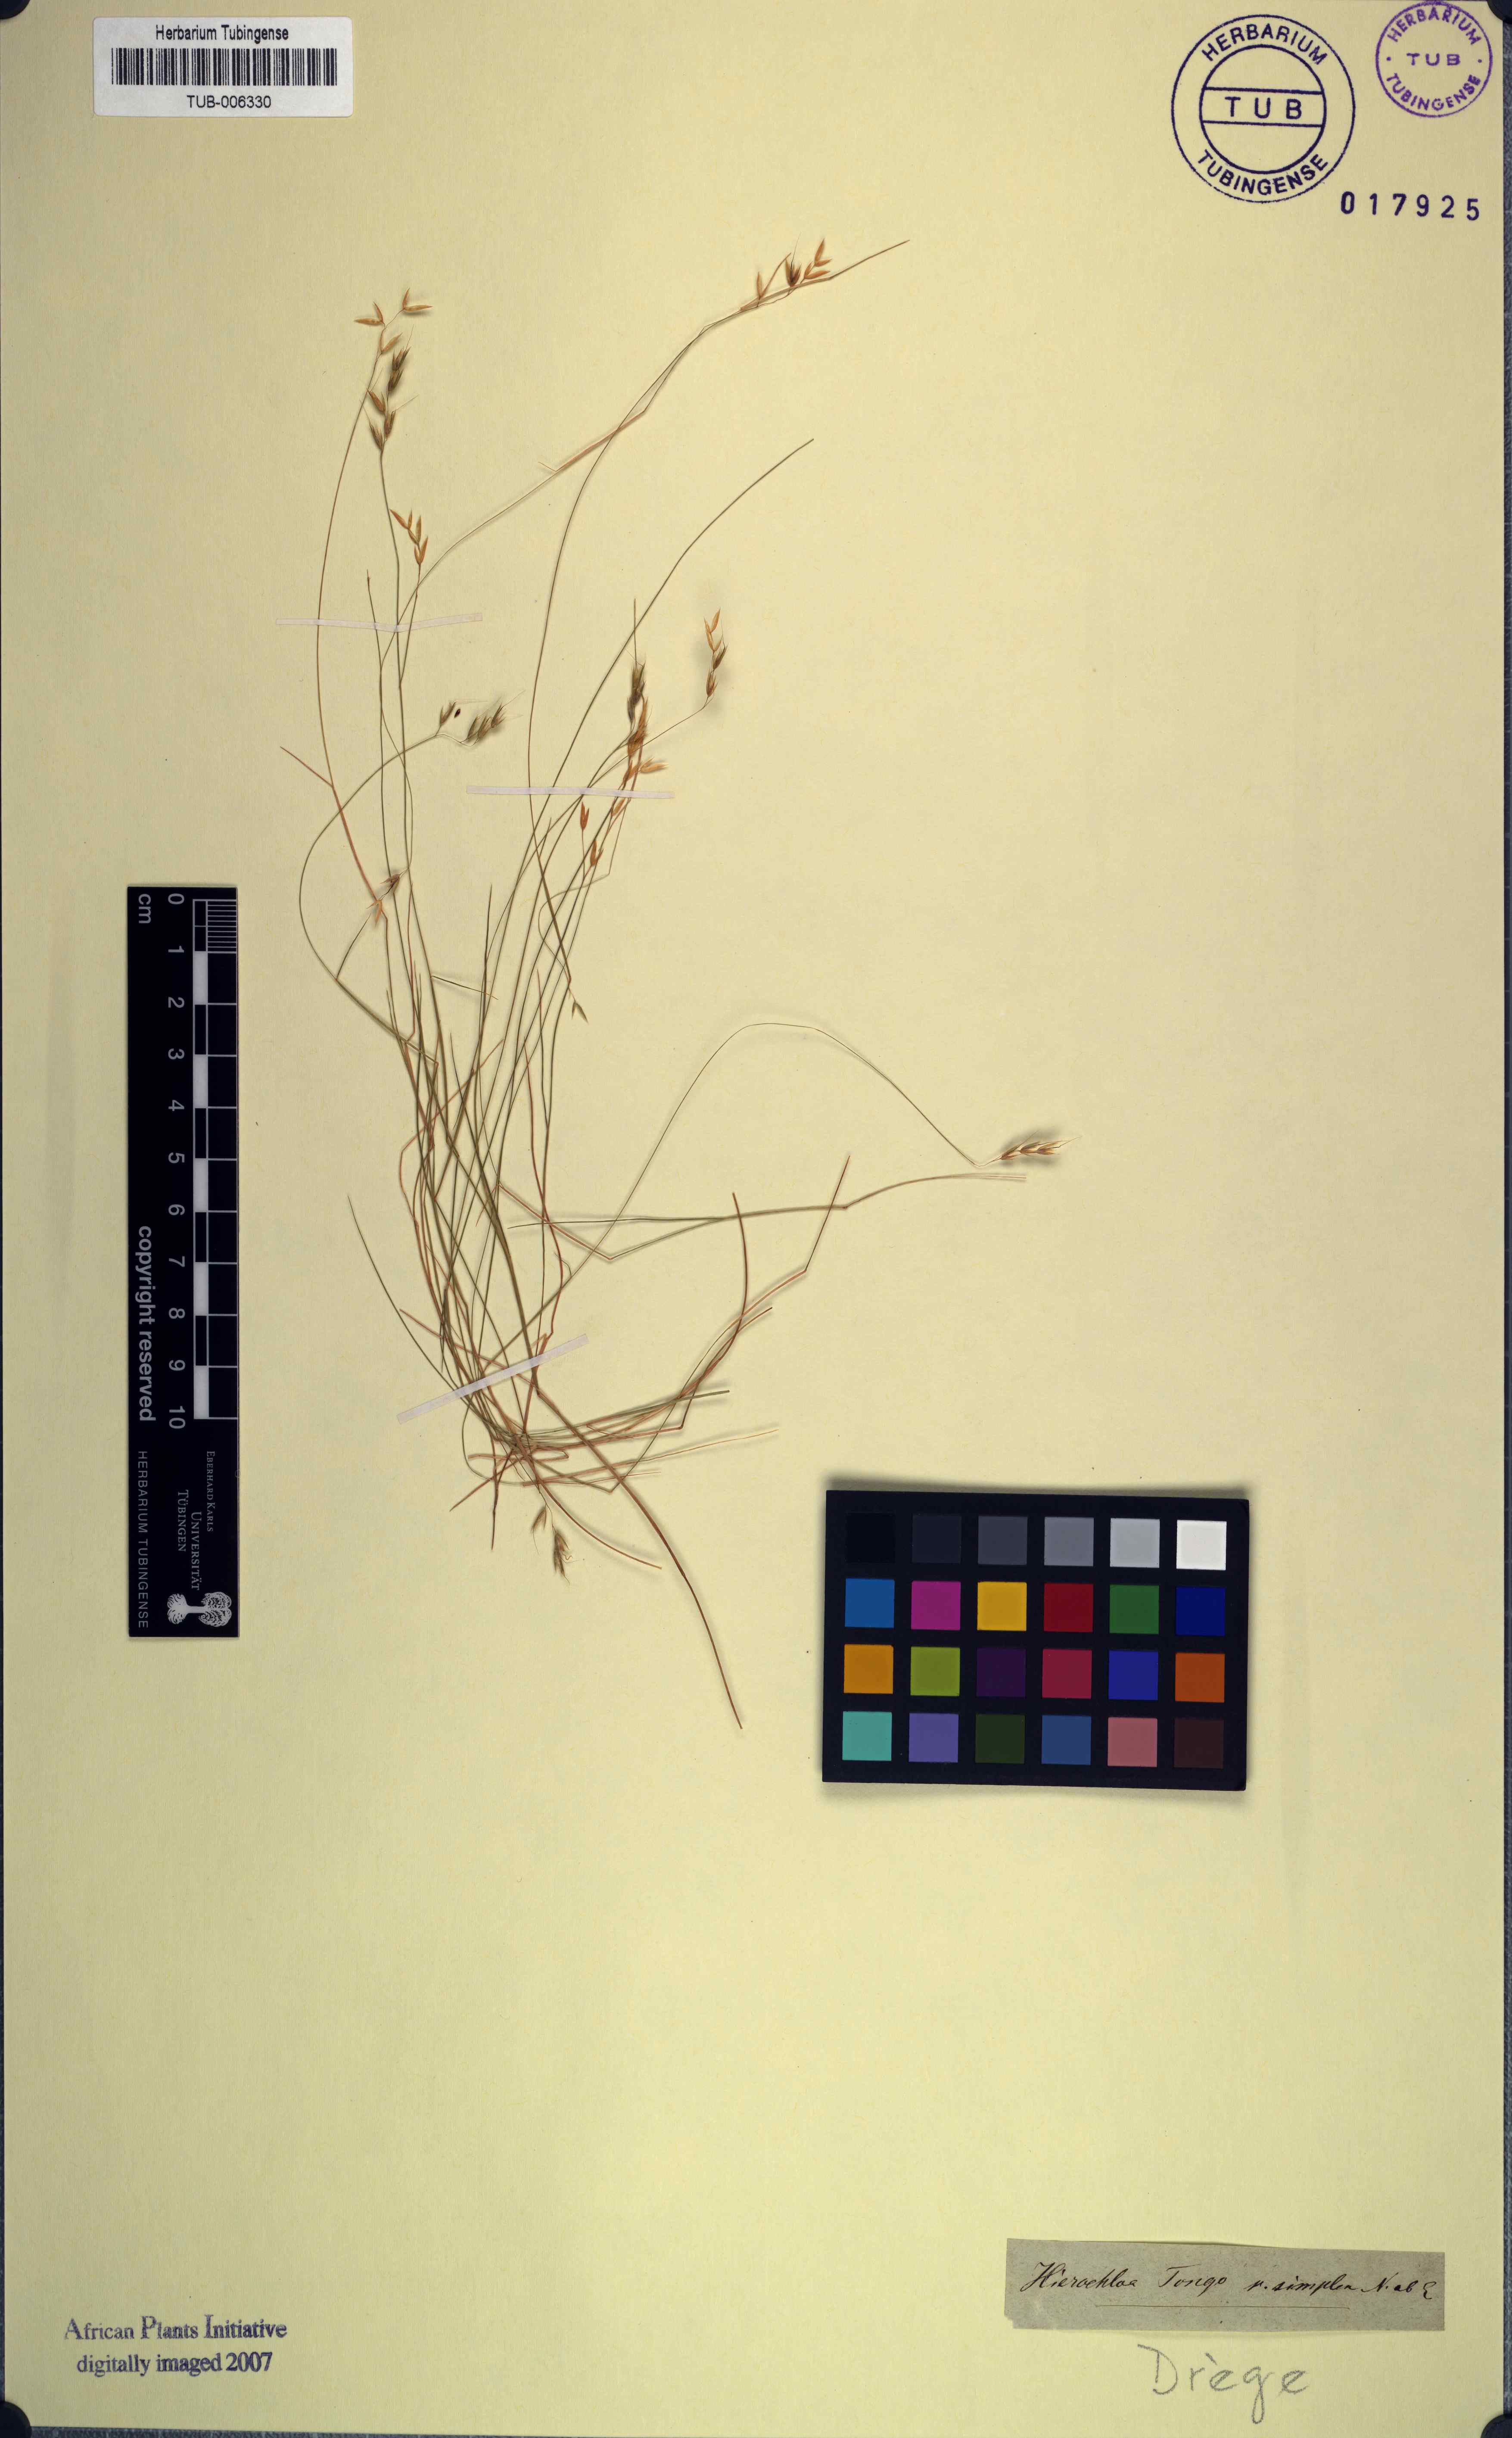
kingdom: Plantae
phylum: Tracheophyta
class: Liliopsida
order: Poales
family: Poaceae
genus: Anthoxanthum
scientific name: Anthoxanthum tongo
